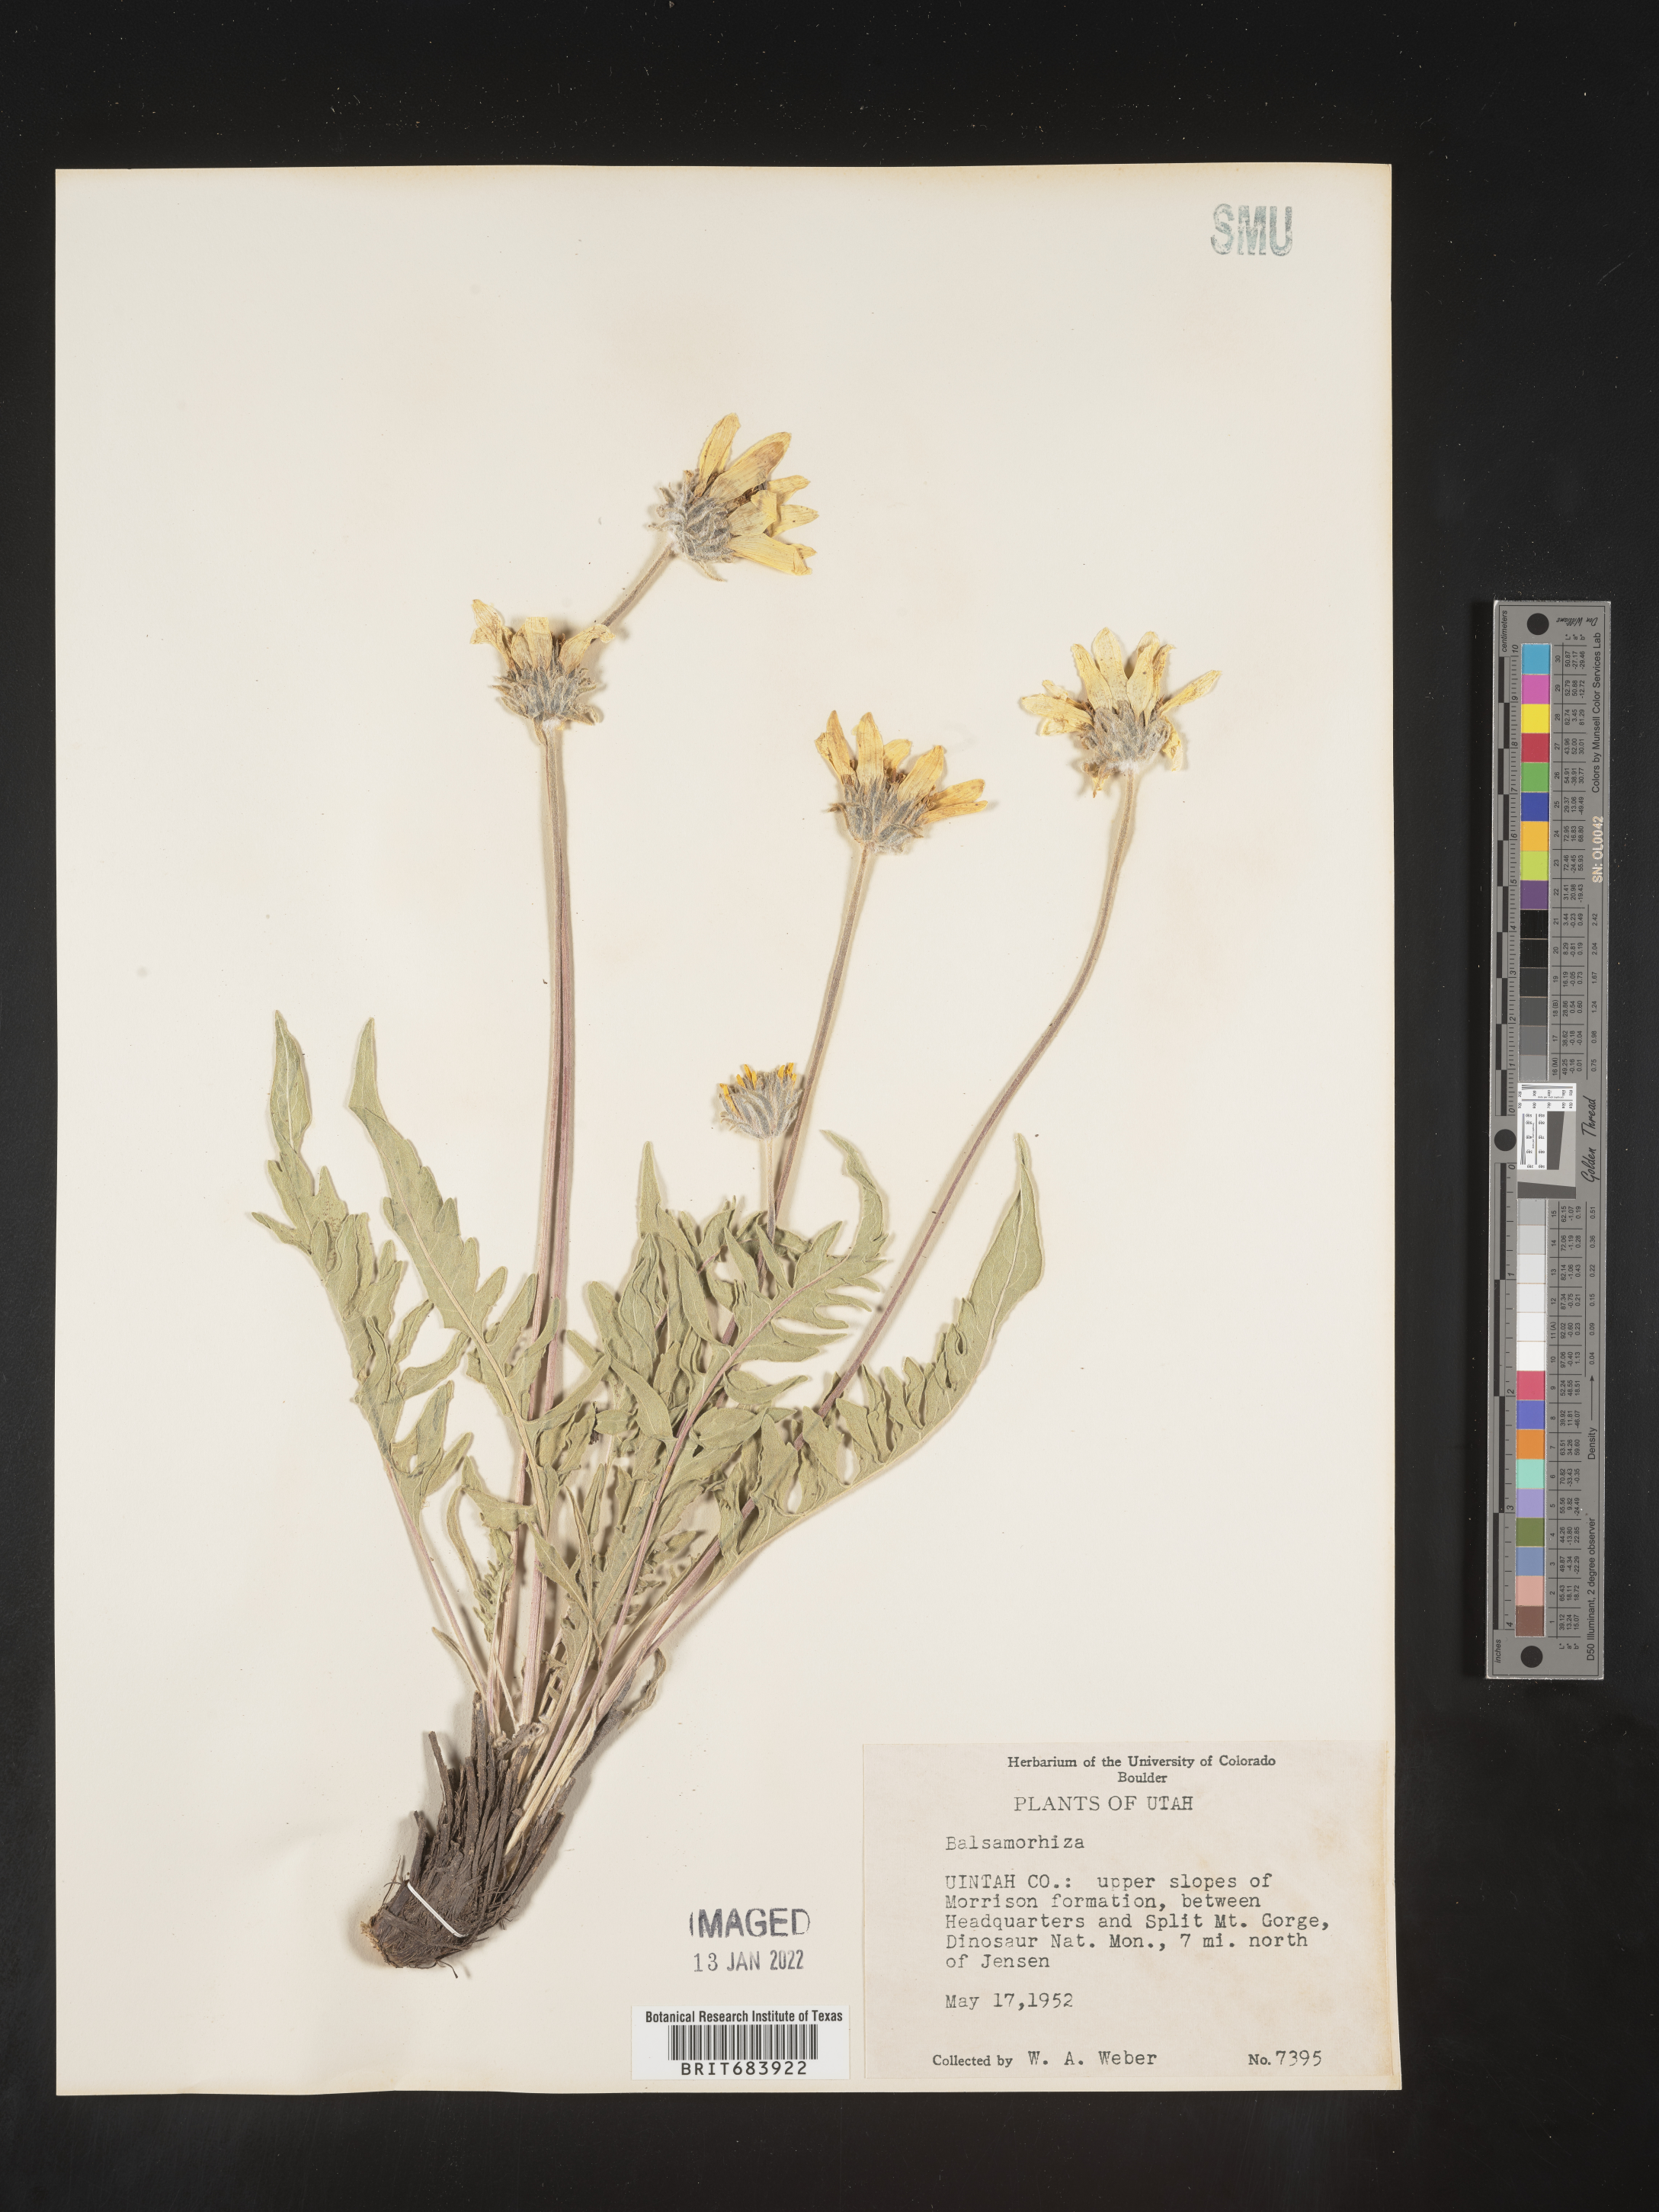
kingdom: Plantae
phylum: Tracheophyta
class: Magnoliopsida
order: Asterales
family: Asteraceae
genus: Balsamorhiza
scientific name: Balsamorhiza serrata
